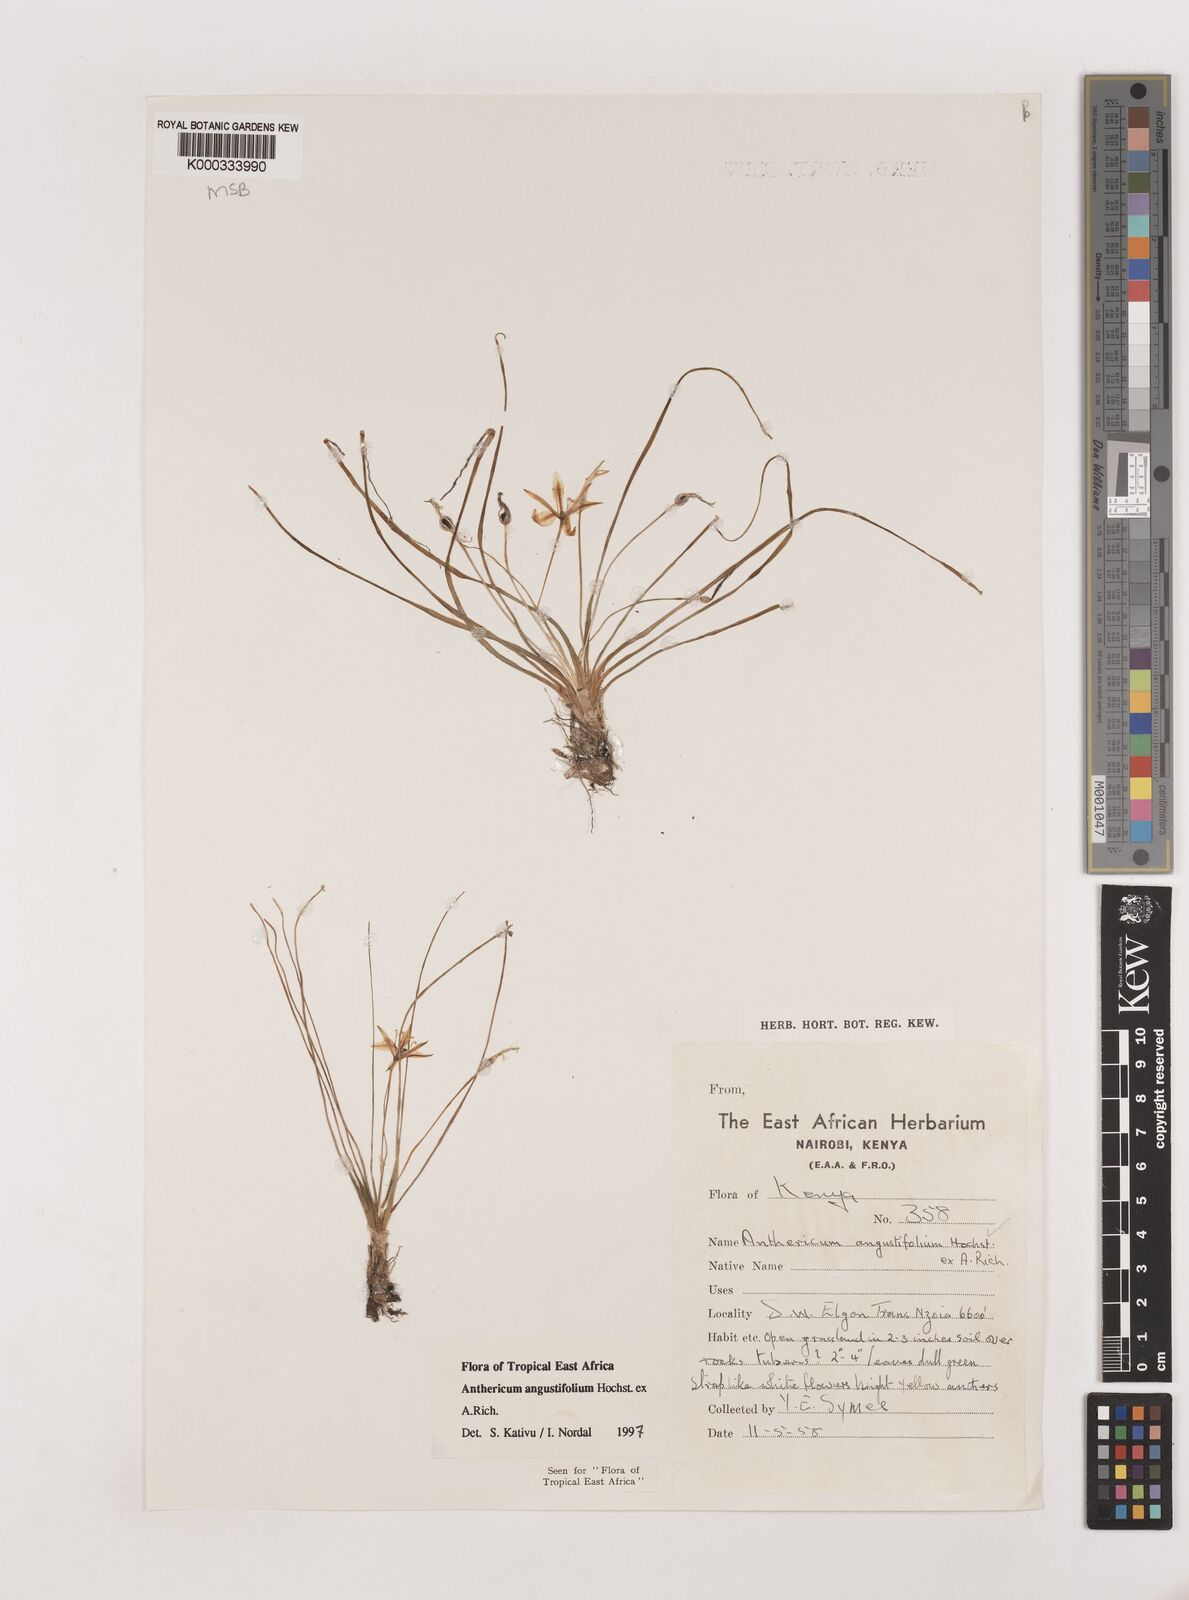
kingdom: Plantae
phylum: Tracheophyta
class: Liliopsida
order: Asparagales
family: Asparagaceae
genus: Anthericum
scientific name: Anthericum angustifolium
